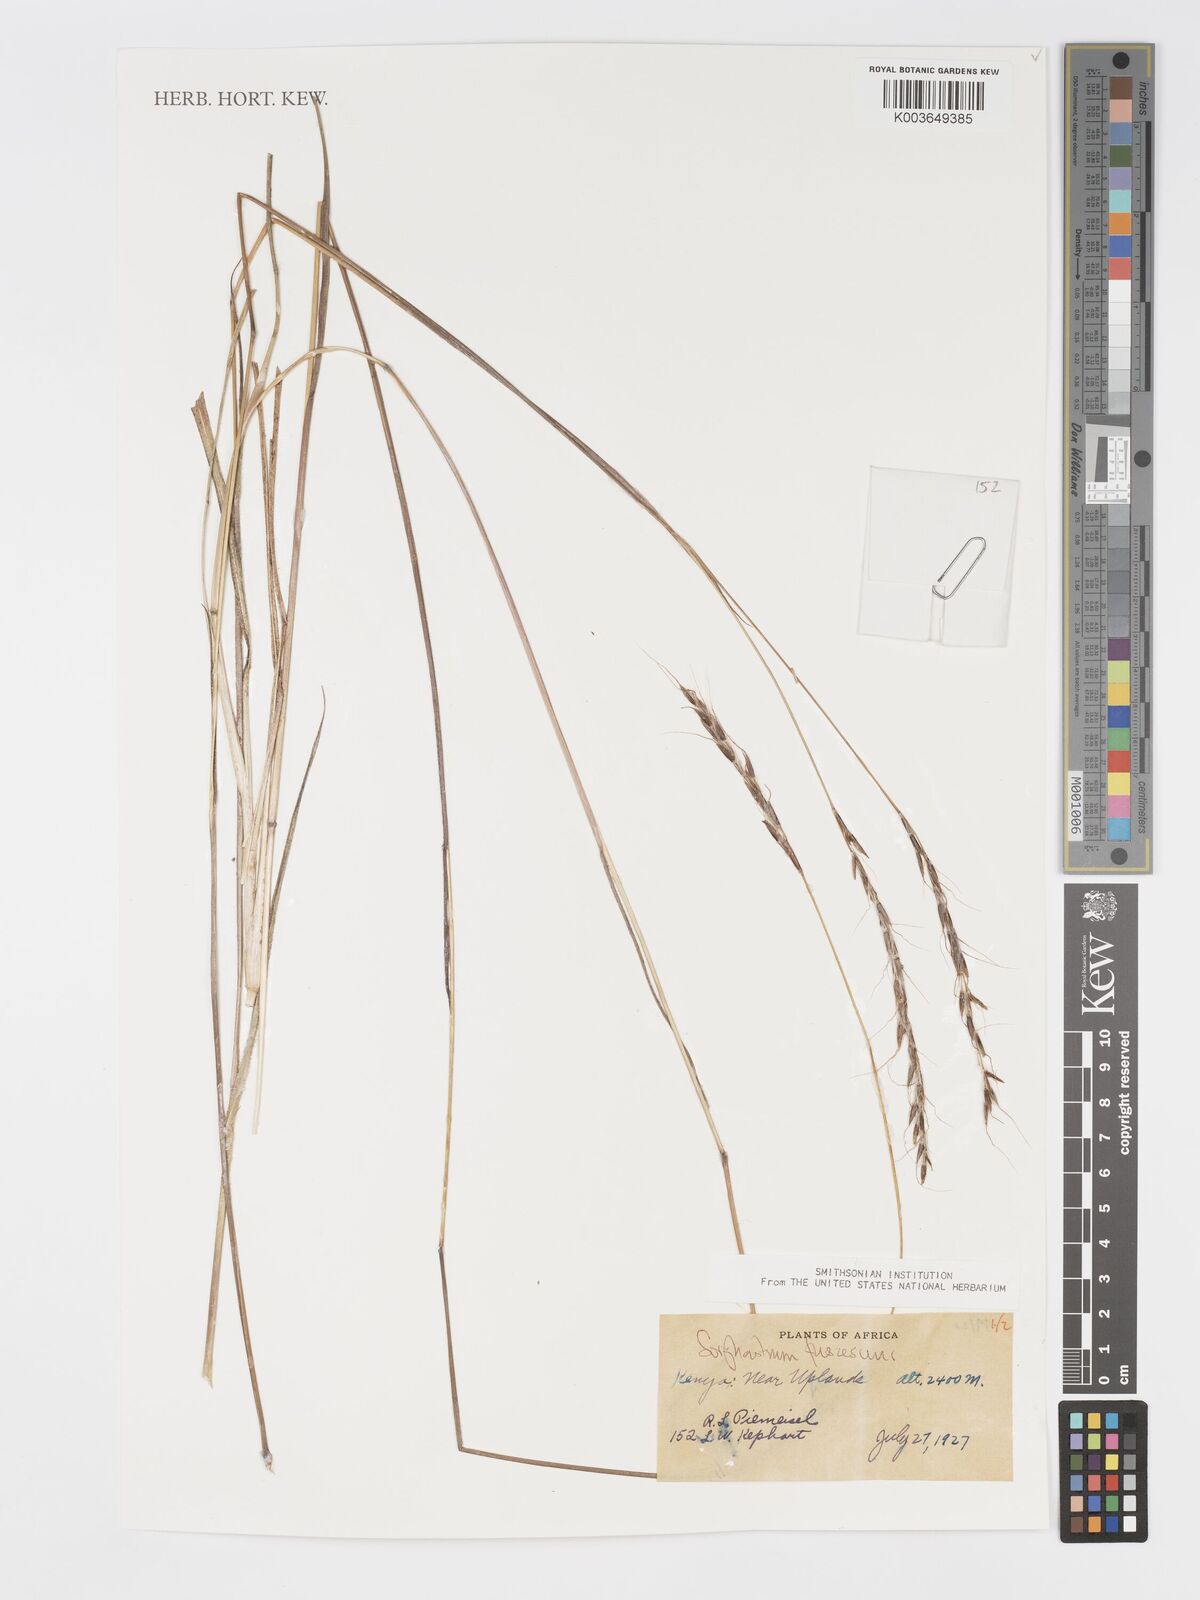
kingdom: Plantae
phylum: Tracheophyta
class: Liliopsida
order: Poales
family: Poaceae
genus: Sorghastrum
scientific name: Sorghastrum fuscescens
